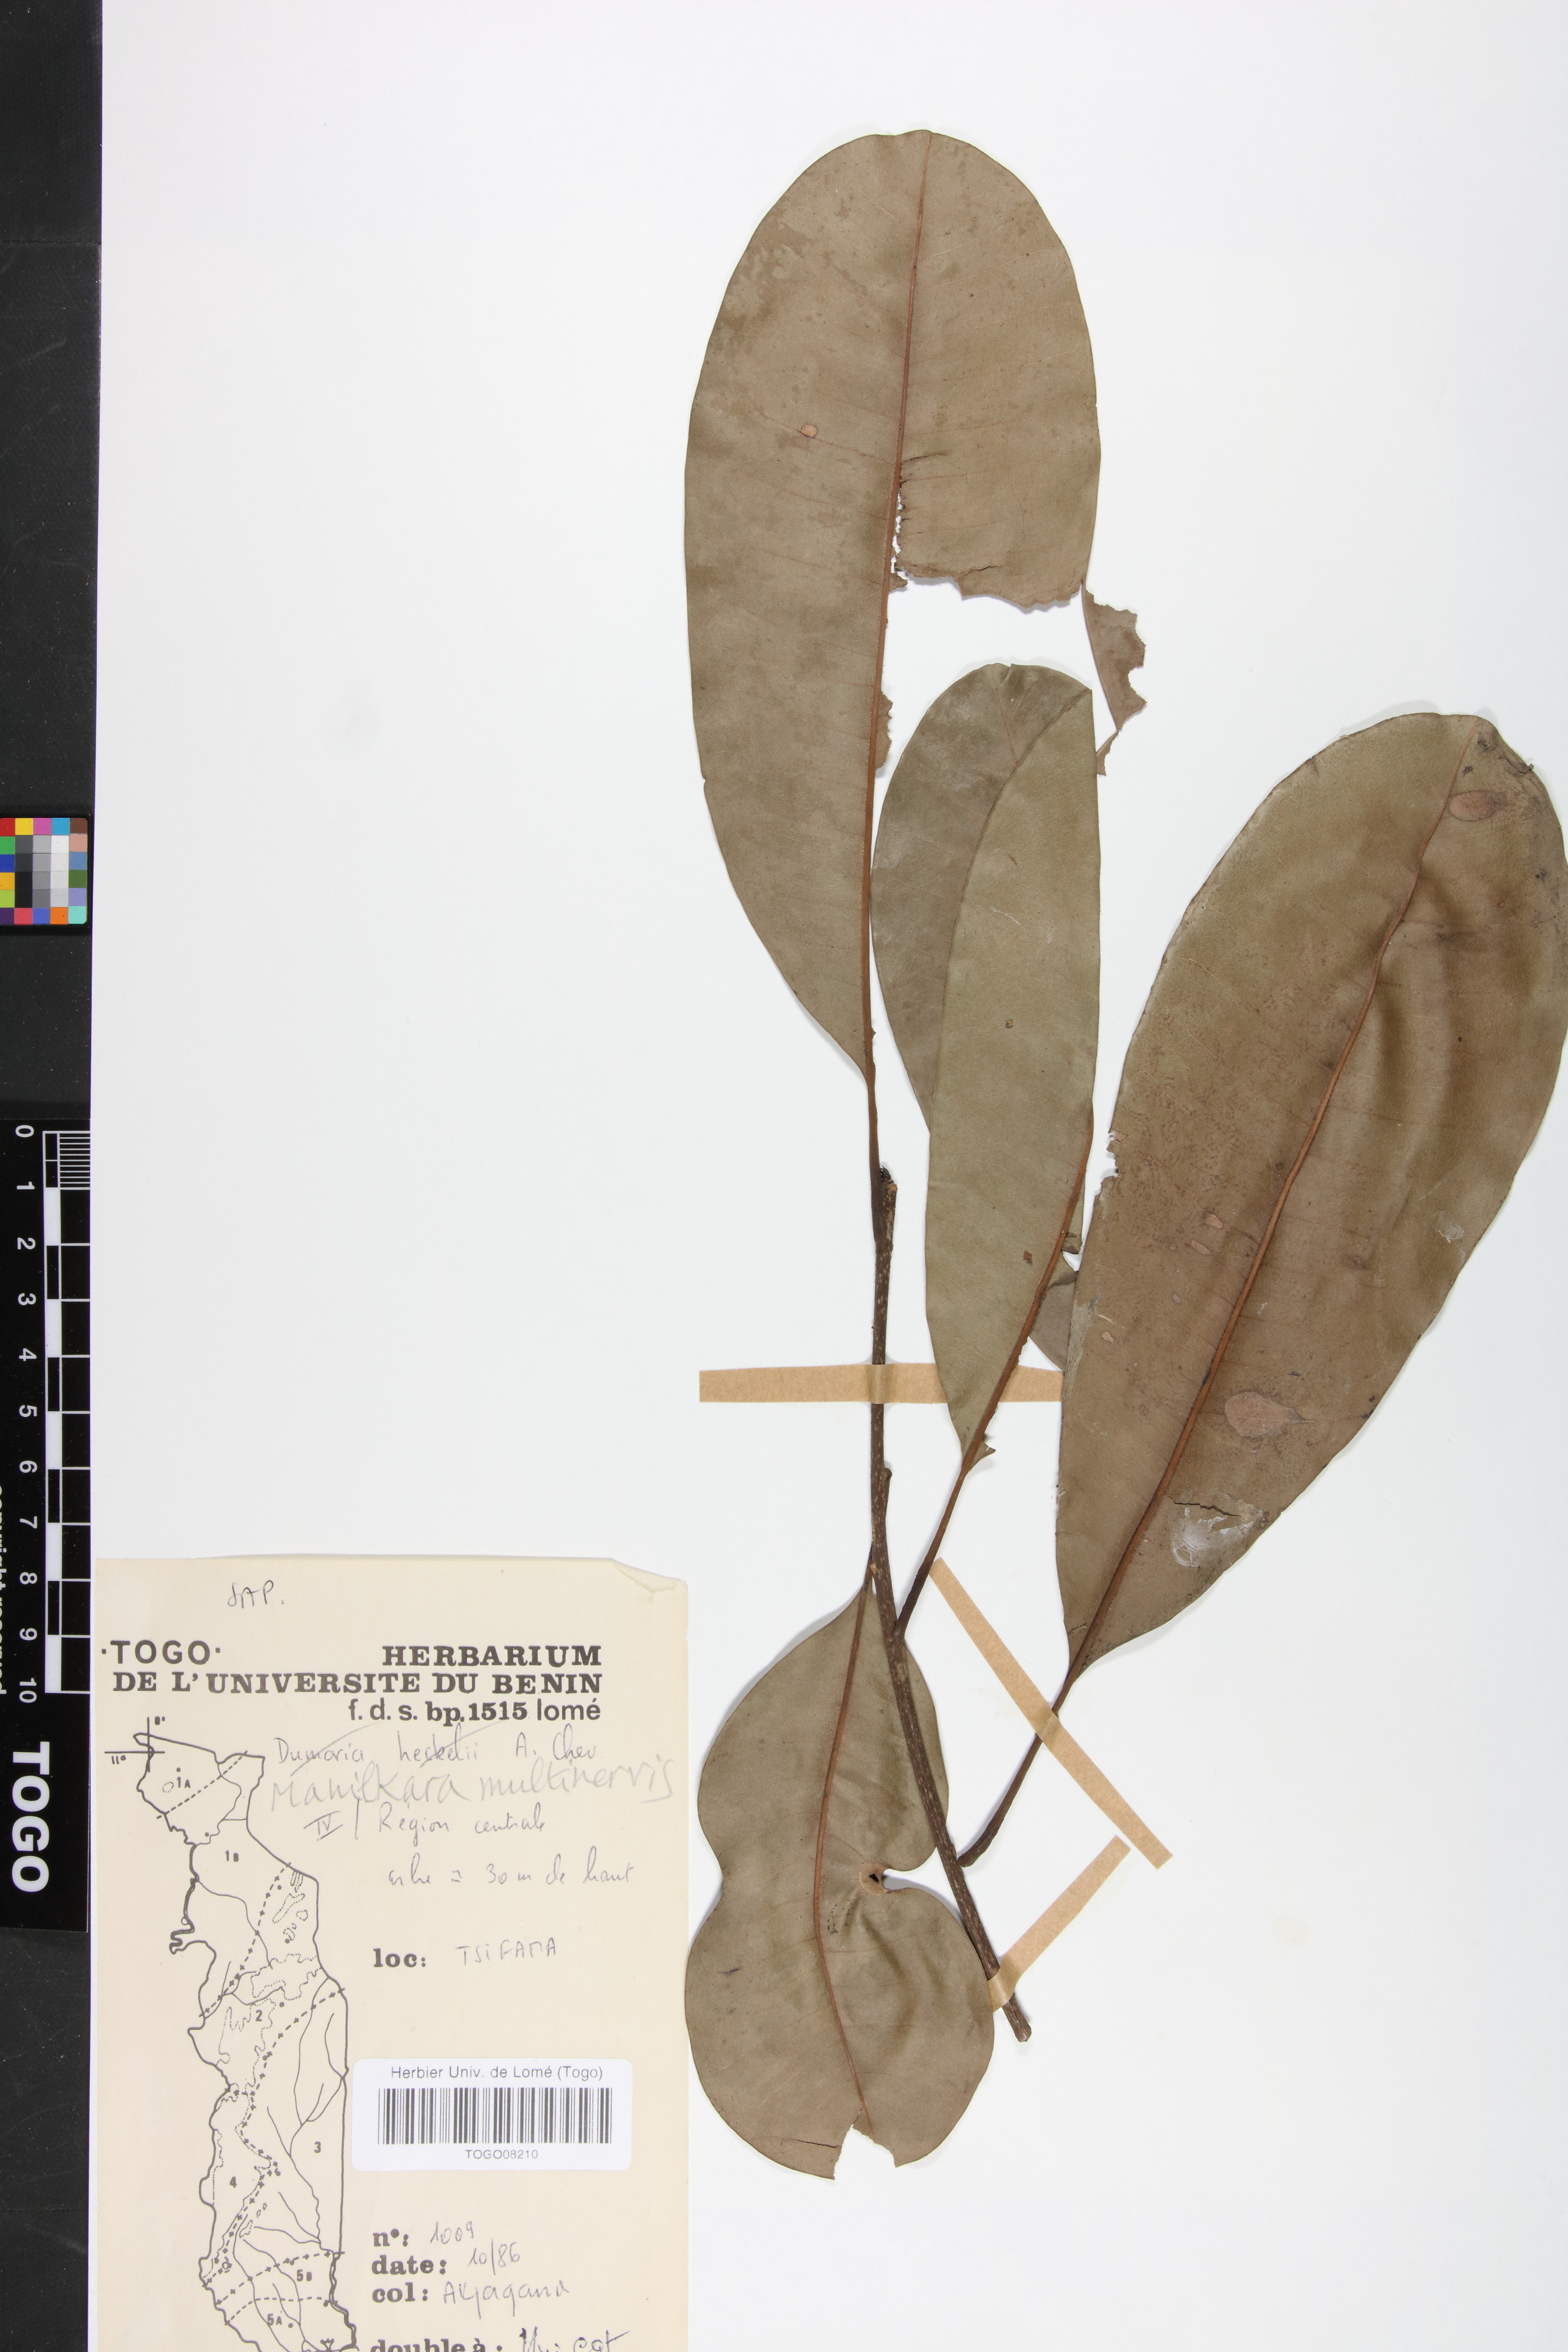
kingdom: Plantae
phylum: Tracheophyta
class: Magnoliopsida
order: Ericales
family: Sapotaceae
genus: Manilkara
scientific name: Manilkara obovata
